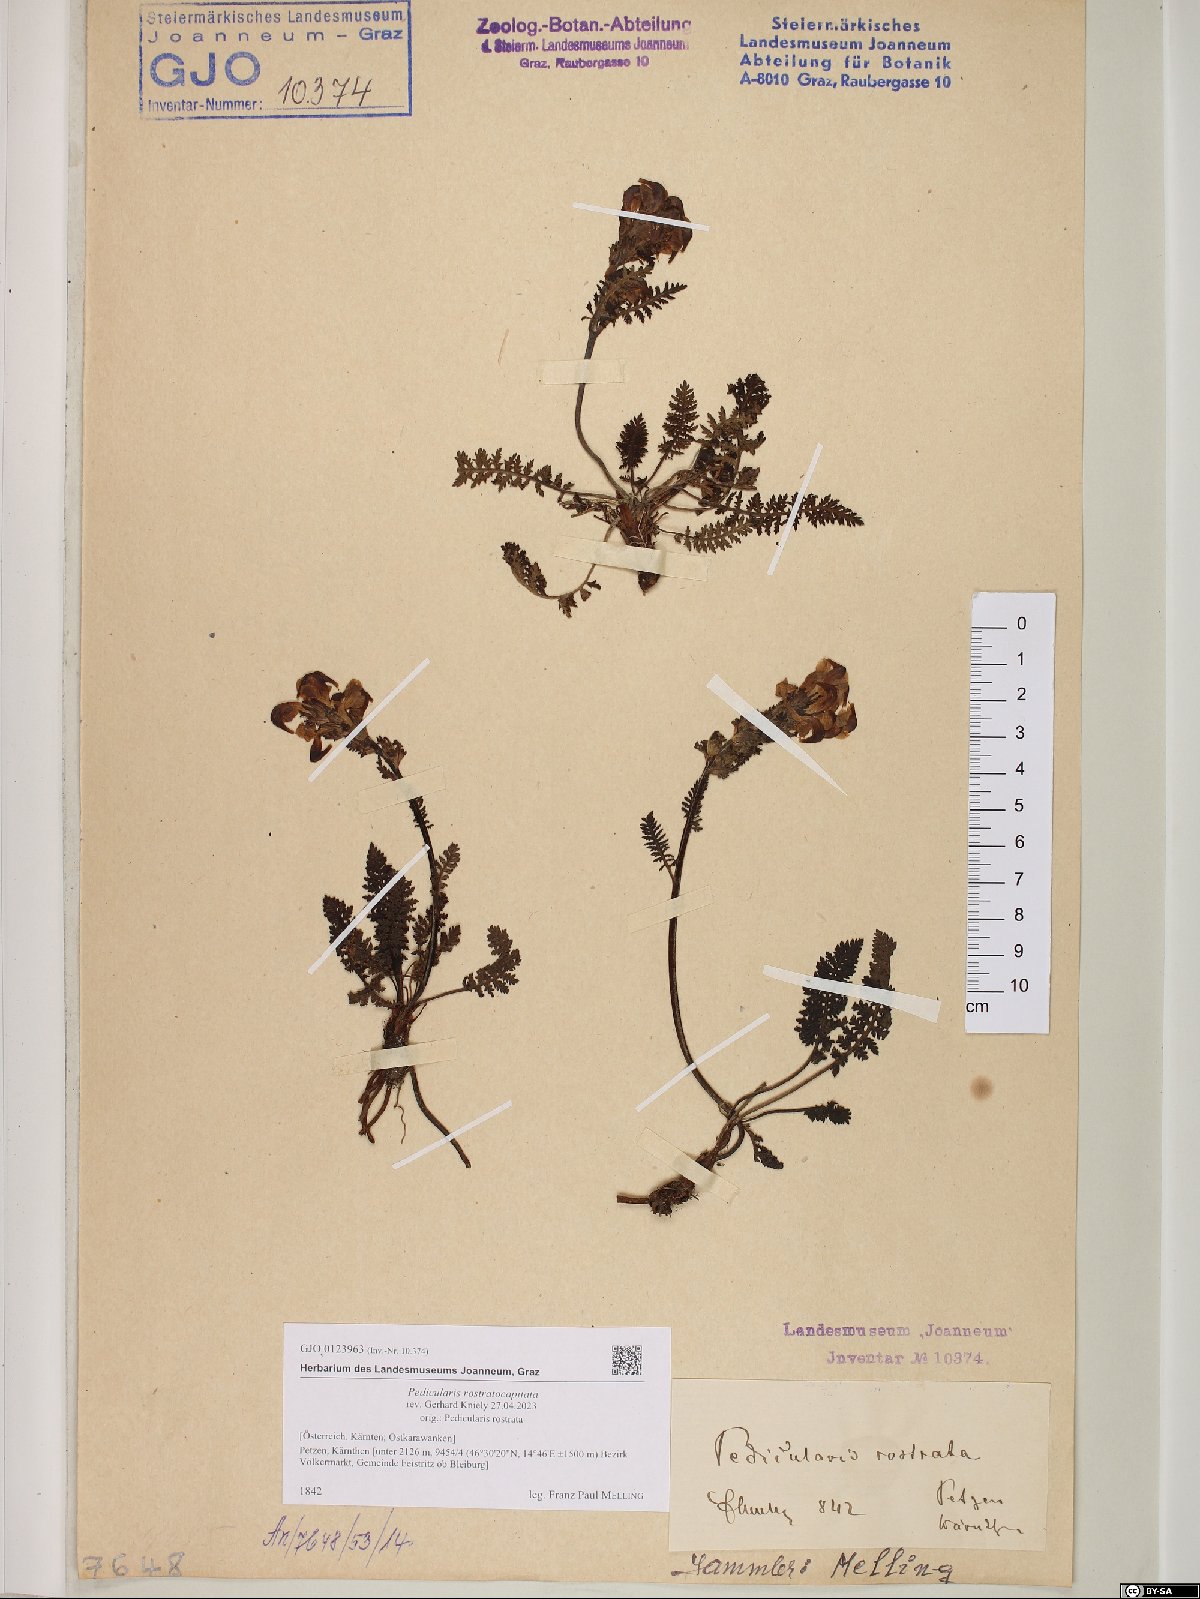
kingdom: Plantae
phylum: Tracheophyta
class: Magnoliopsida
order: Lamiales
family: Orobanchaceae
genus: Pedicularis
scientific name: Pedicularis rostratocapitata
